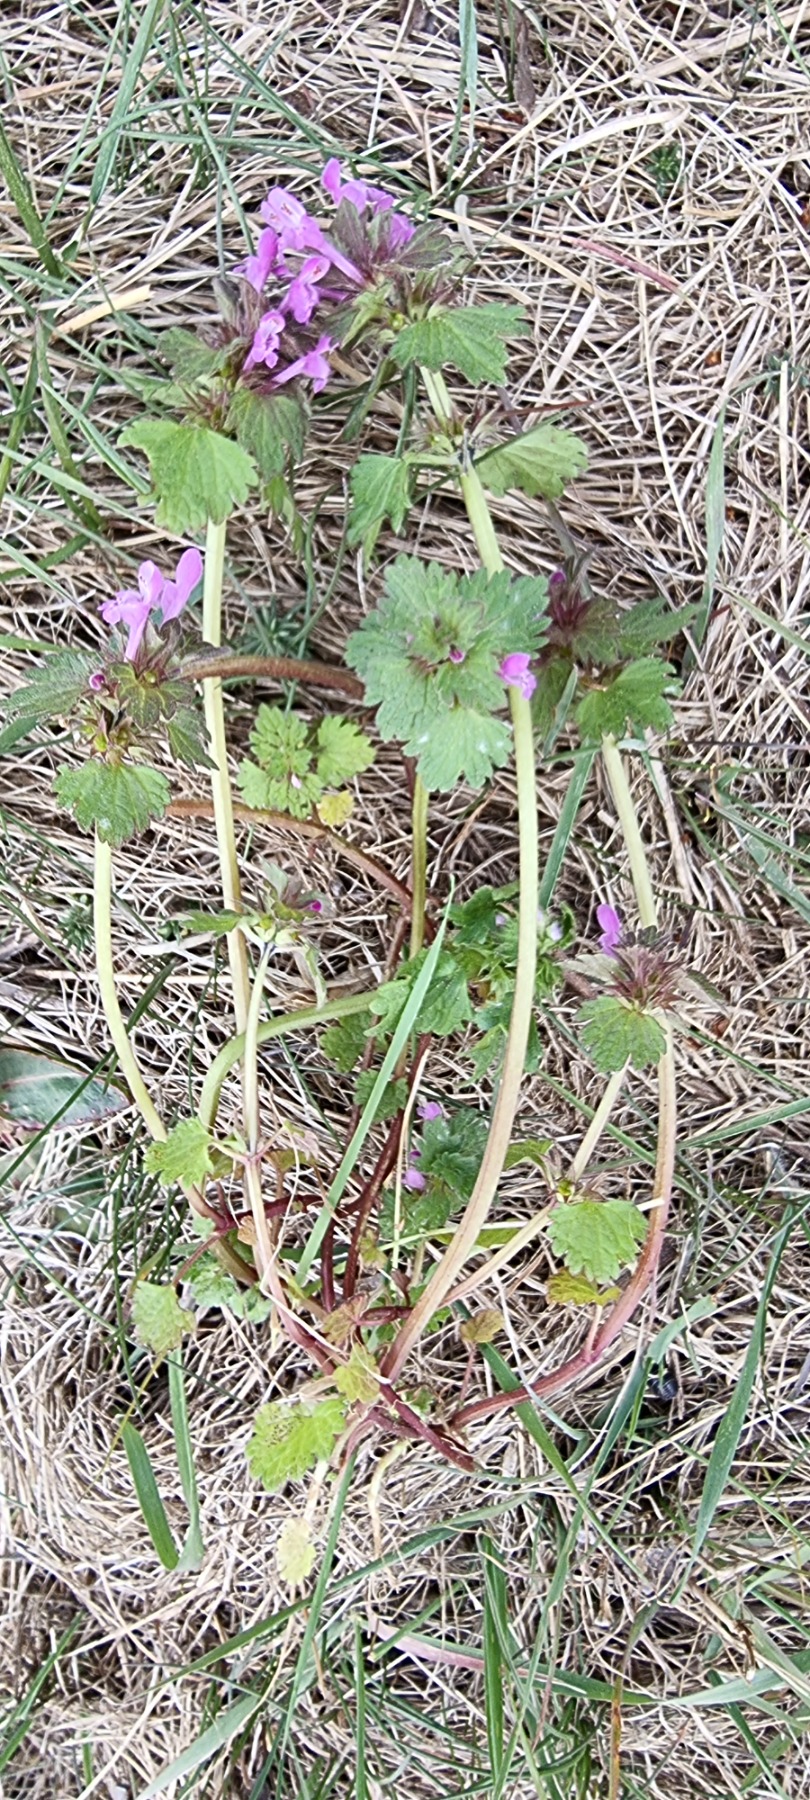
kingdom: Plantae
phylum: Tracheophyta
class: Magnoliopsida
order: Lamiales
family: Lamiaceae
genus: Lamium
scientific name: Lamium hybridum
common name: Fliget tvetand
